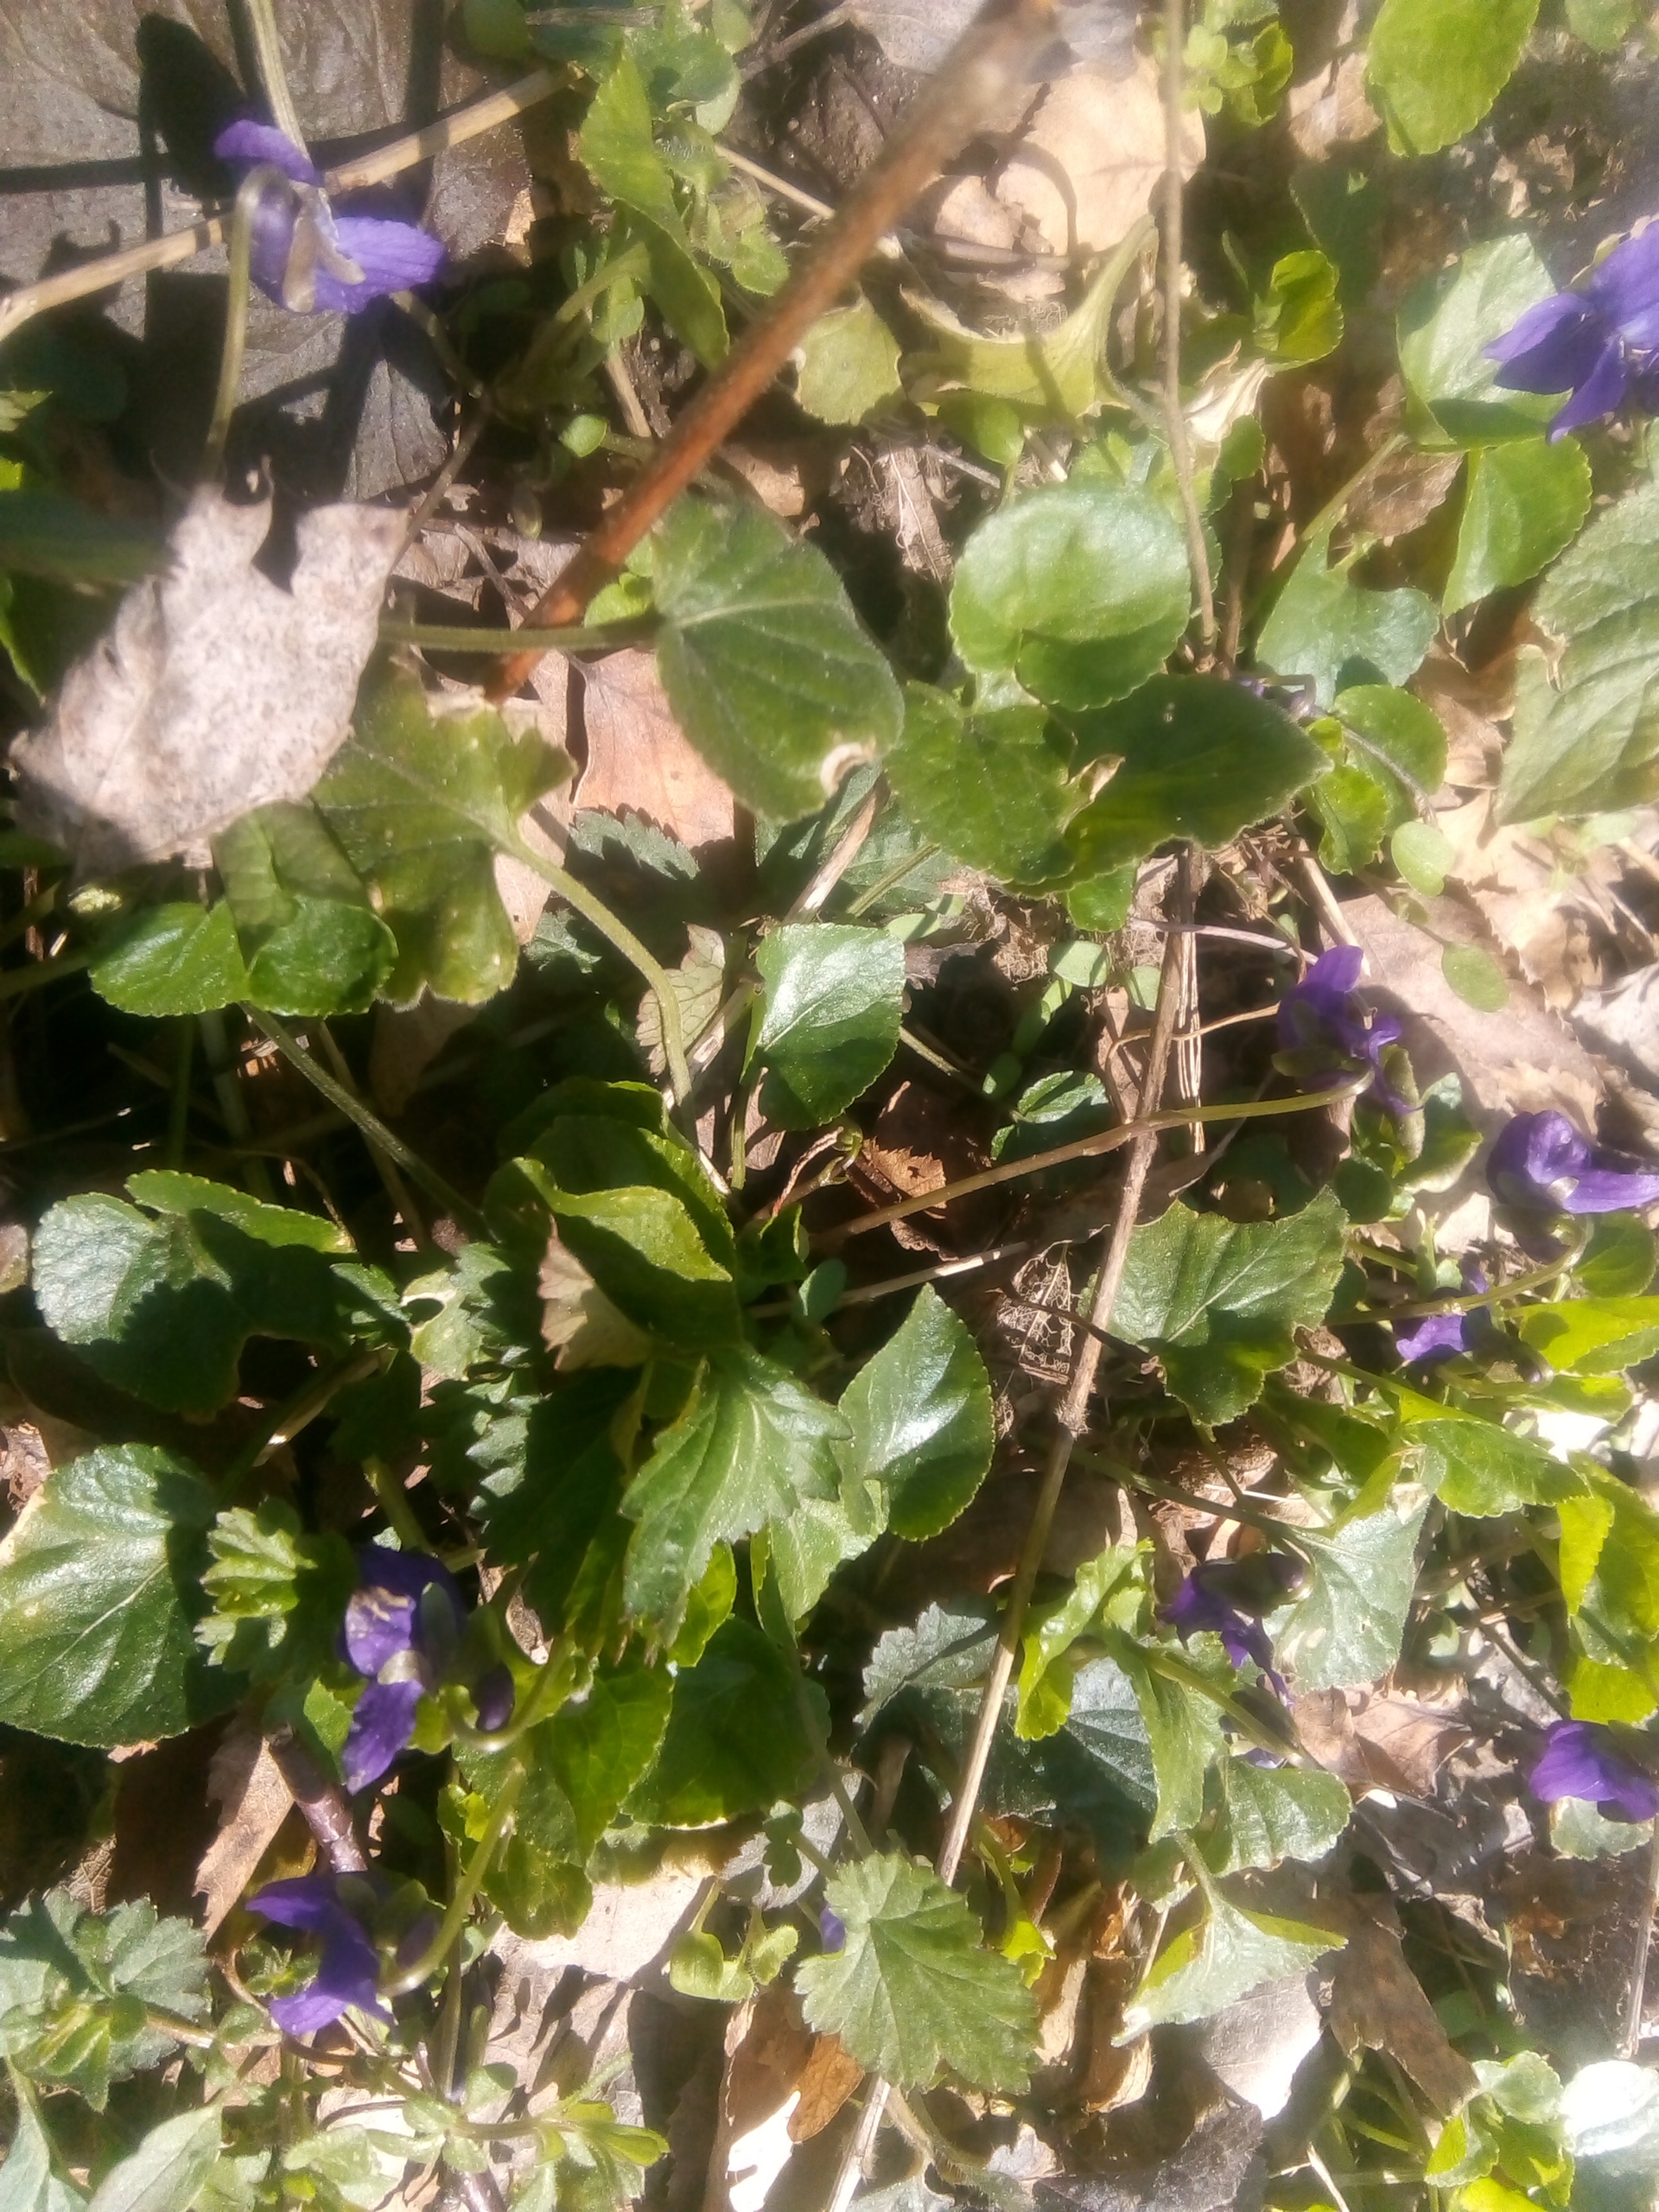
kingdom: Plantae
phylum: Tracheophyta
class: Magnoliopsida
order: Malpighiales
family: Violaceae
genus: Viola
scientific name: Viola odorata
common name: Marts-viol
